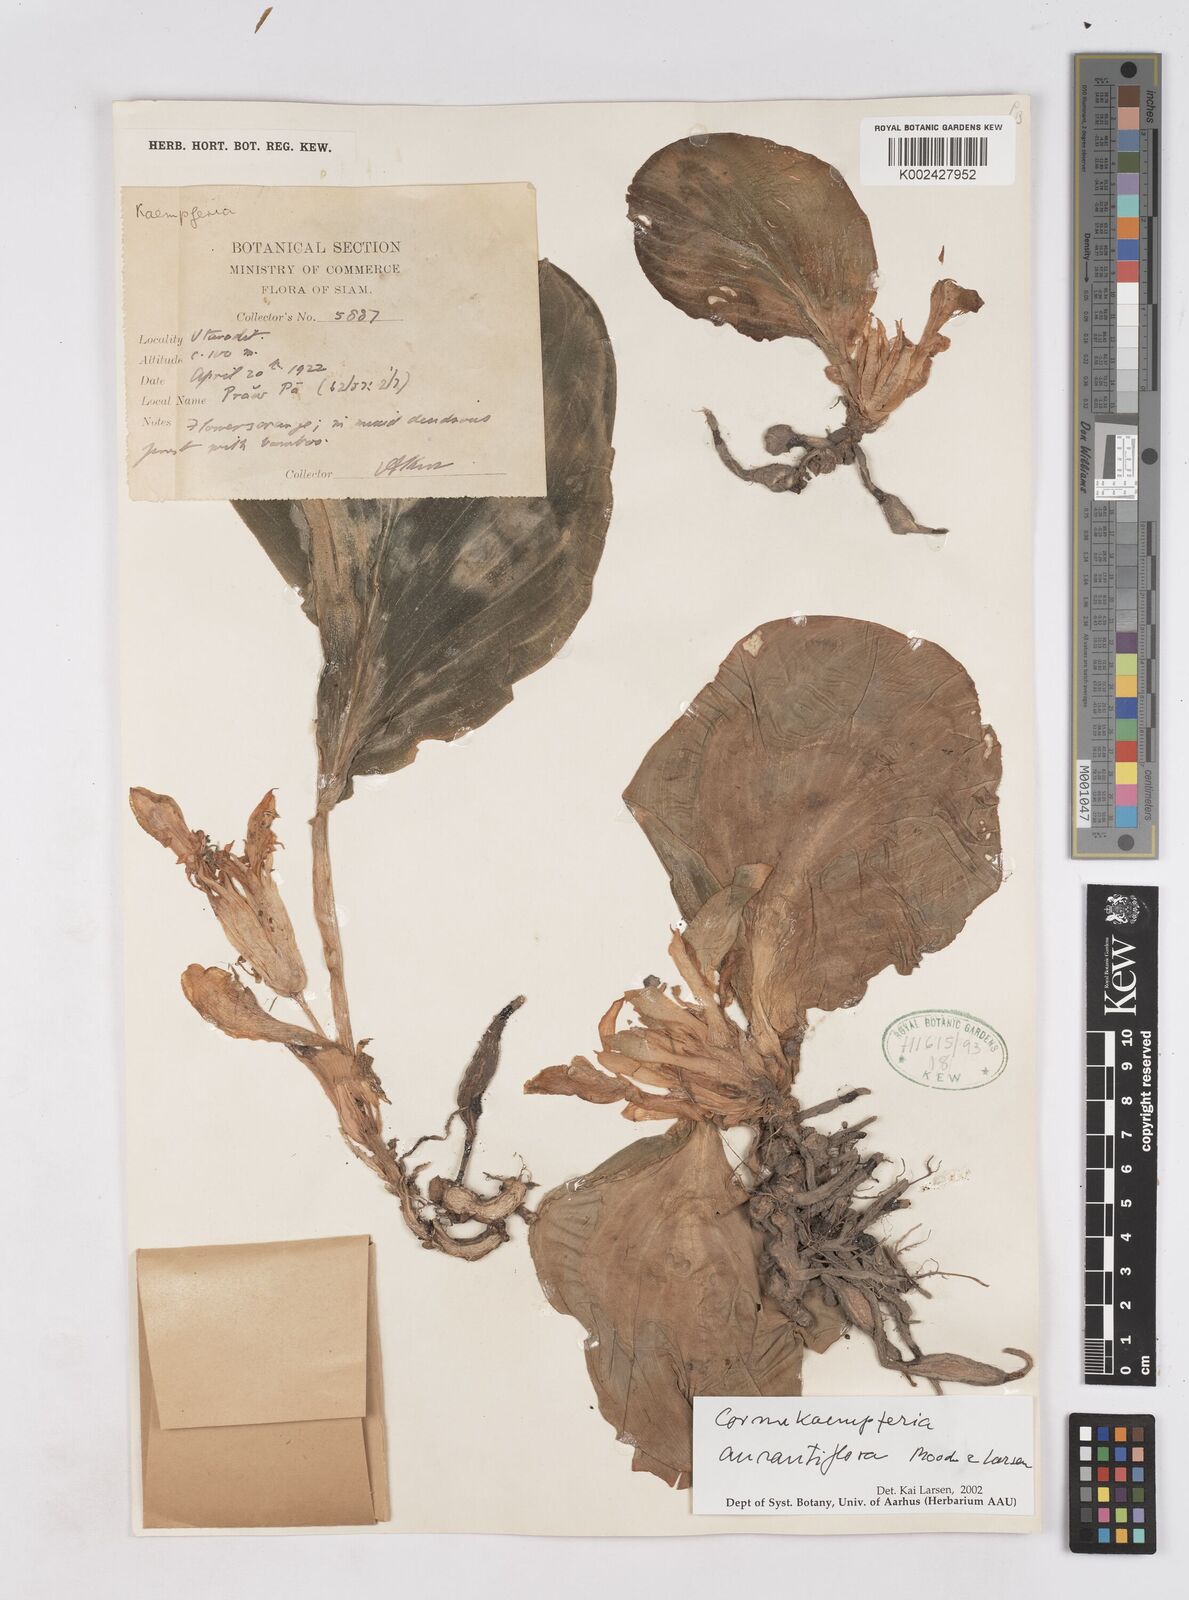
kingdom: Plantae
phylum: Tracheophyta
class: Liliopsida
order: Zingiberales
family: Zingiberaceae
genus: Cornukaempferia
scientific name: Cornukaempferia
